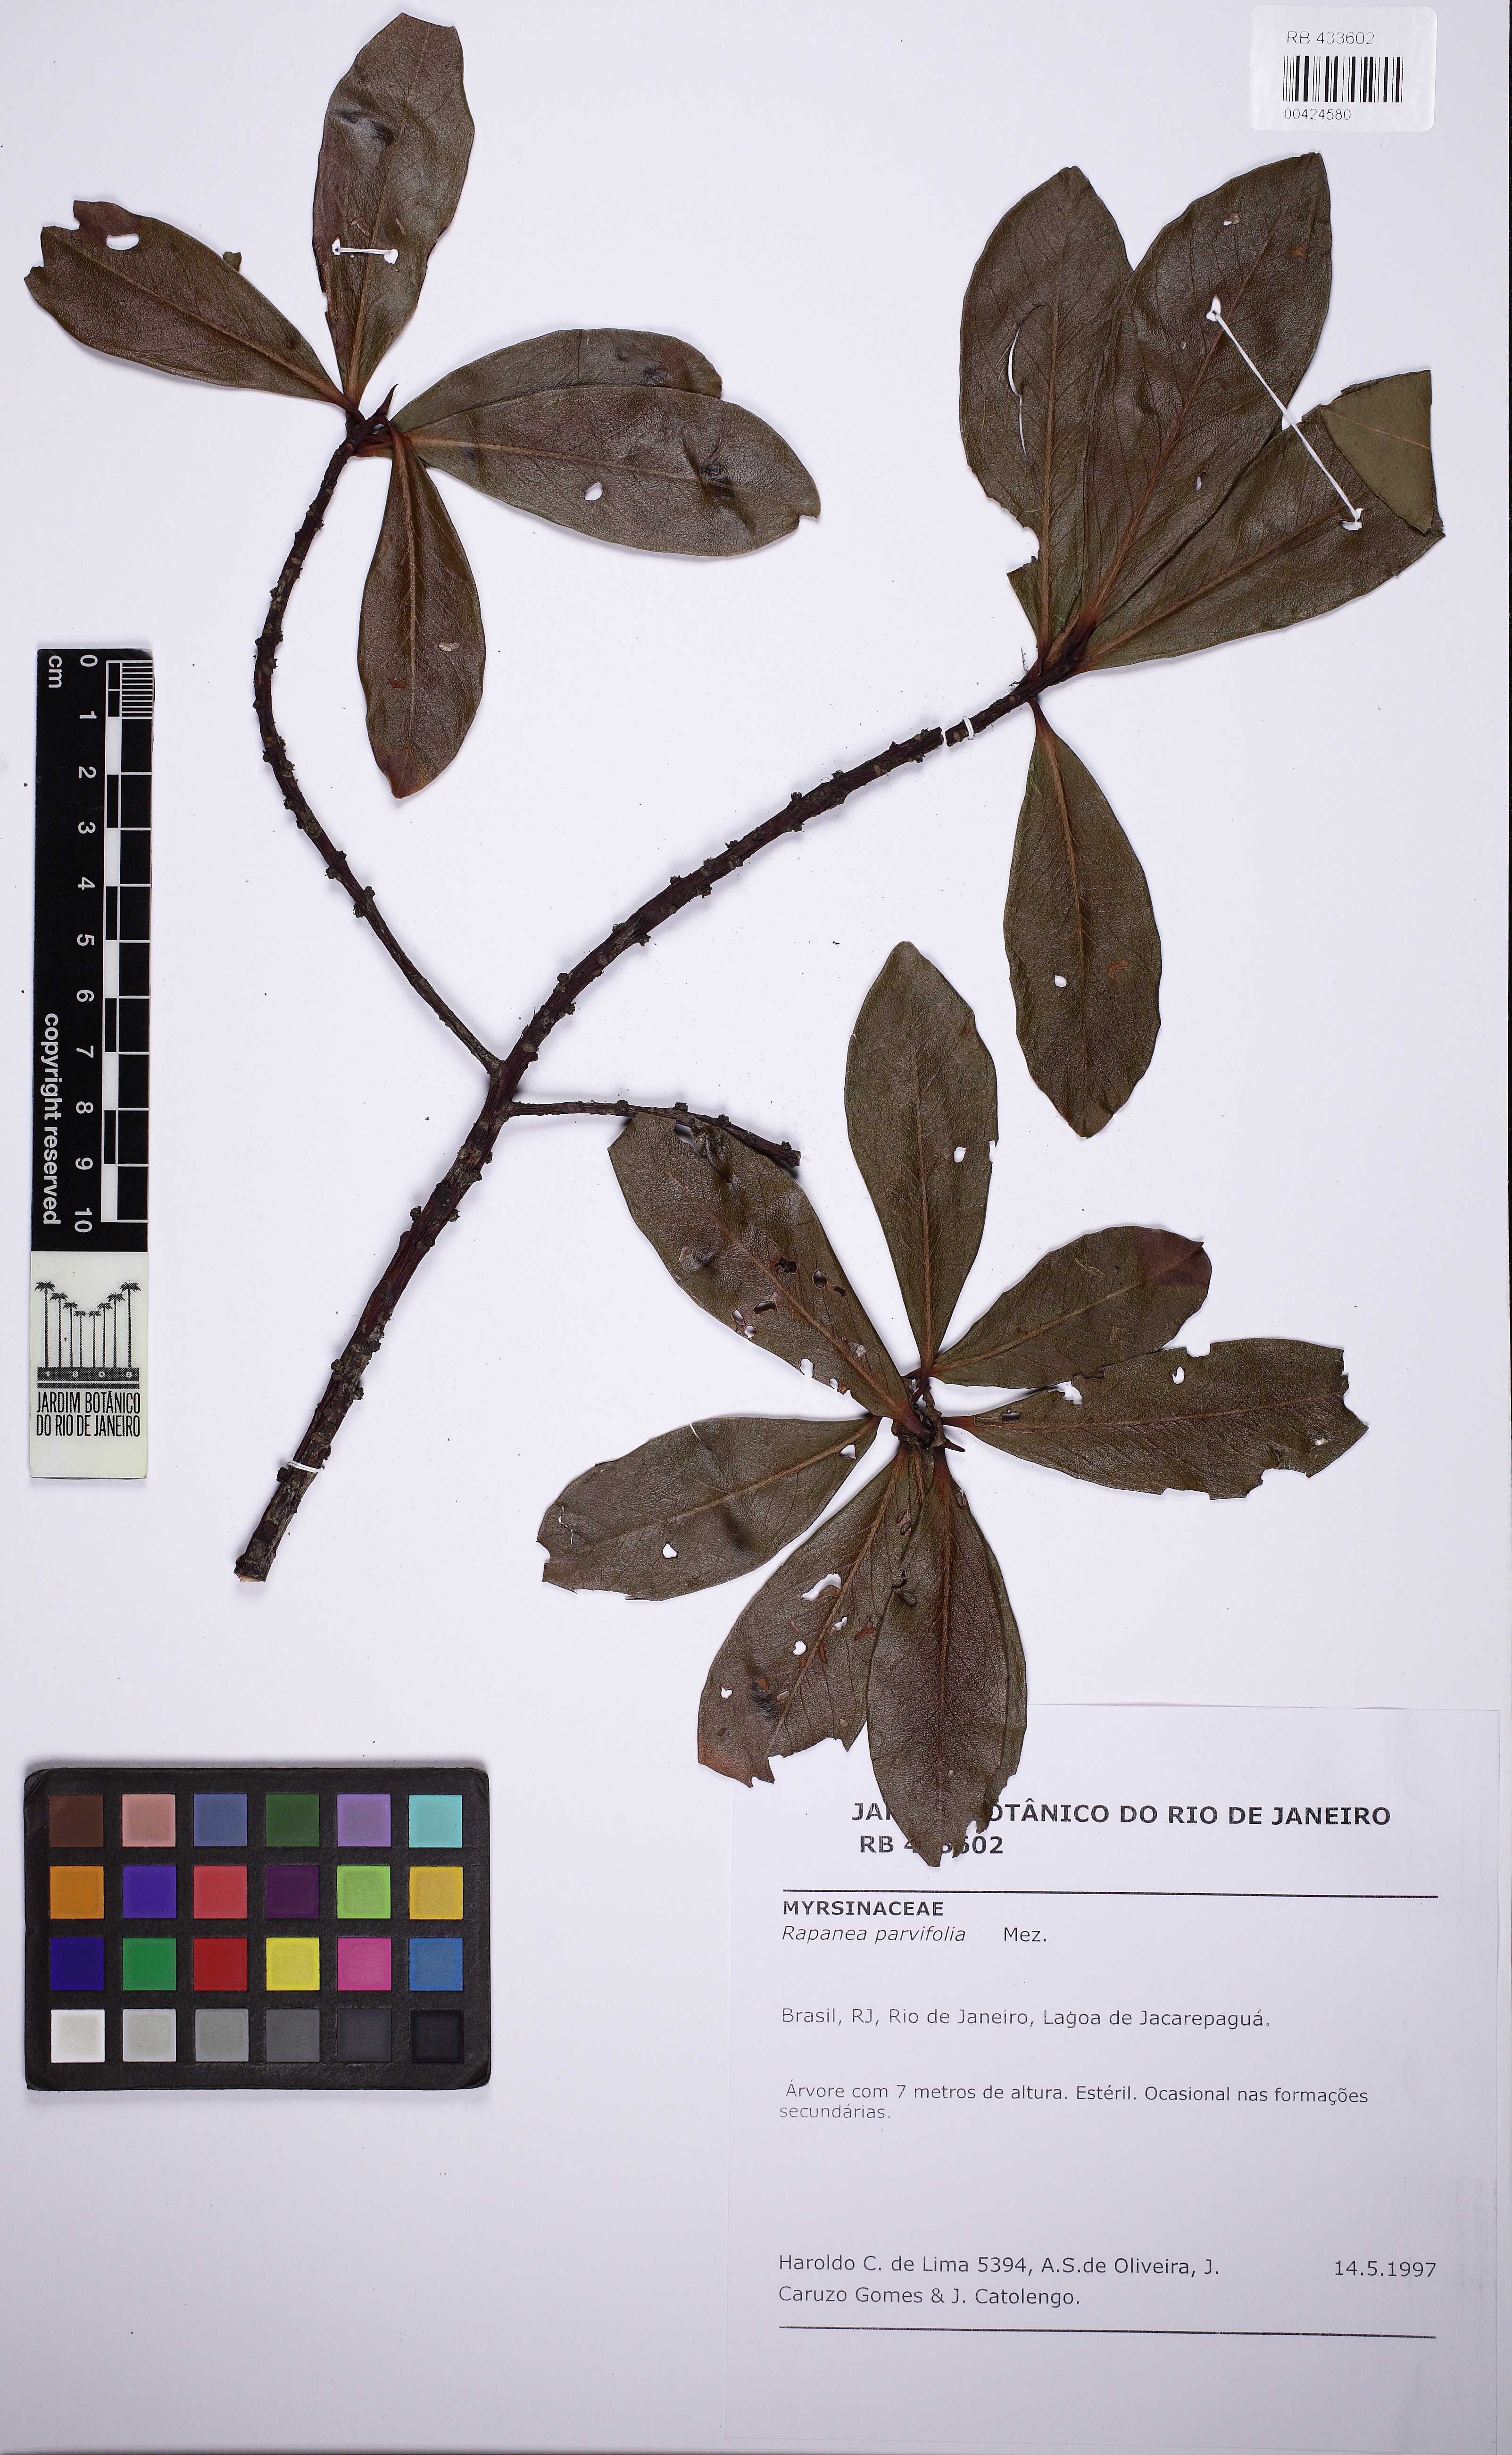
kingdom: Plantae
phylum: Tracheophyta
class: Magnoliopsida
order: Ericales
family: Primulaceae
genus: Myrsine
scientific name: Myrsine parvifolia
